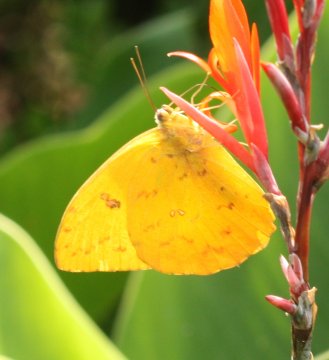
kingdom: Animalia
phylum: Arthropoda
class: Insecta
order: Lepidoptera
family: Pieridae
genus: Phoebis
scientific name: Phoebis philea
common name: Orange-barred Sulphur
